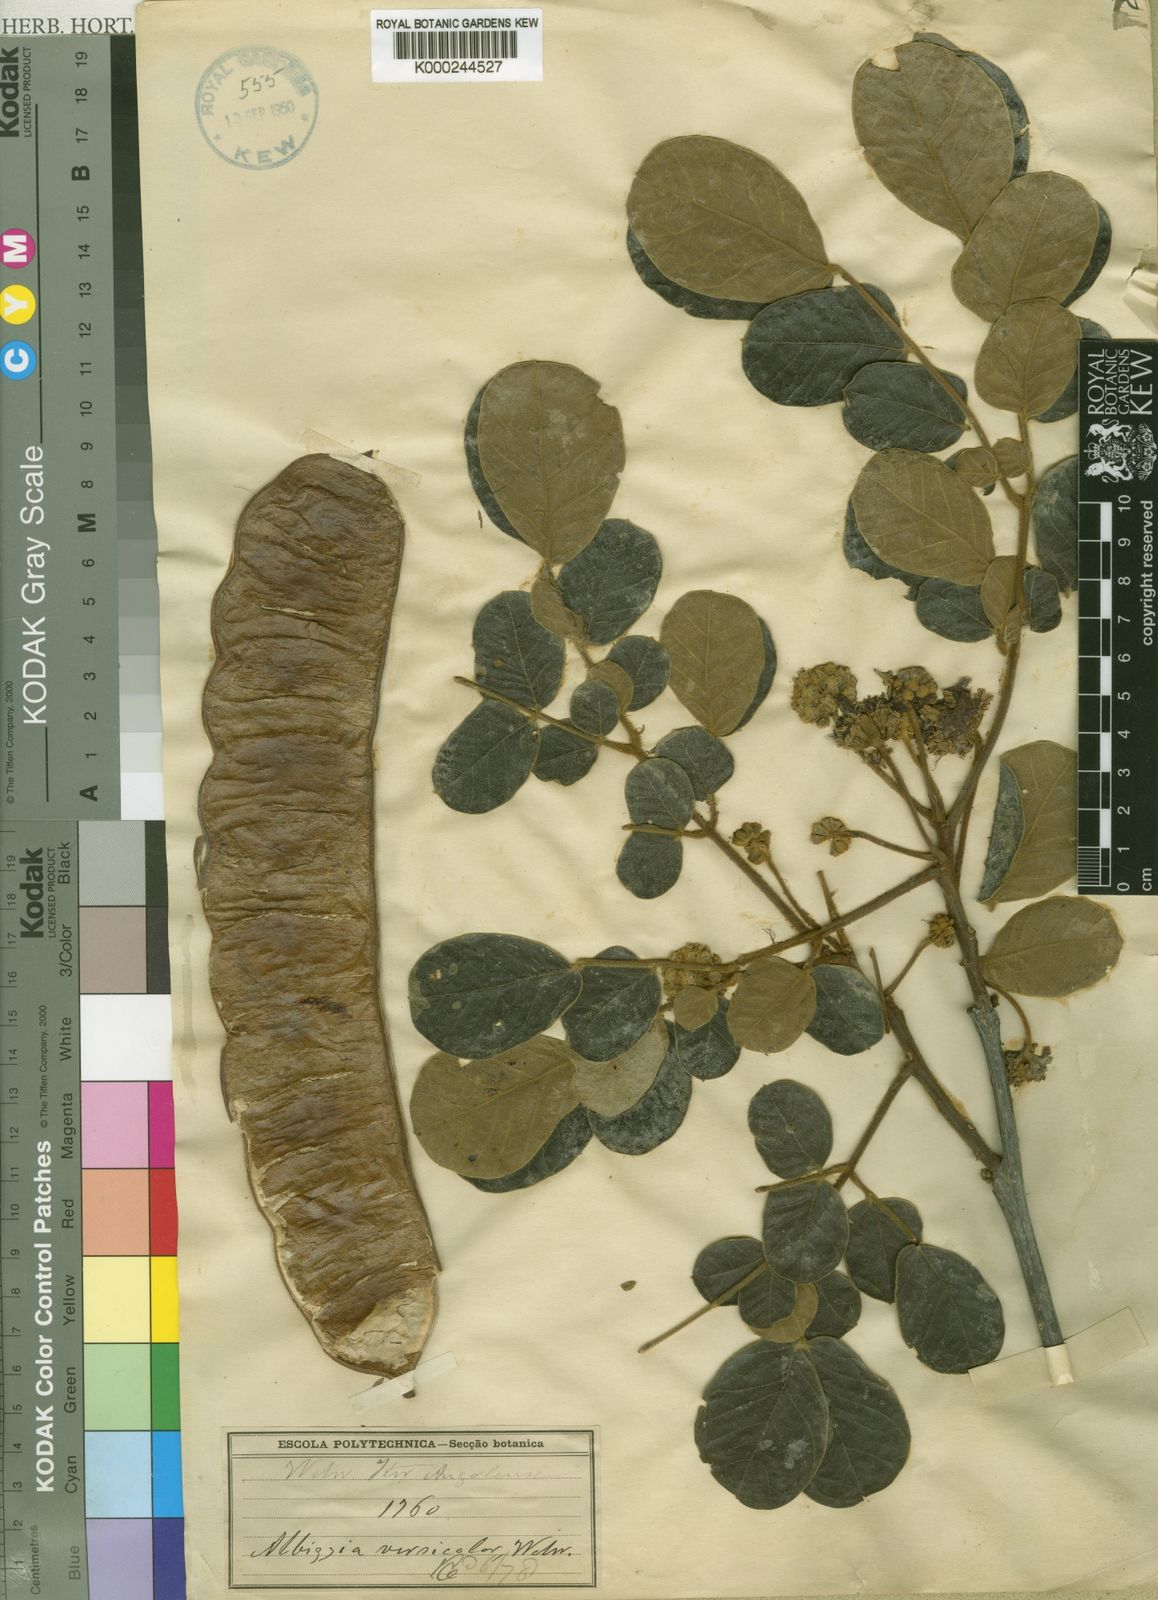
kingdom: Plantae
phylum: Tracheophyta
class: Magnoliopsida
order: Fabales
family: Fabaceae
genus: Albizia
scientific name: Albizia versicolor
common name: Poisonpod
